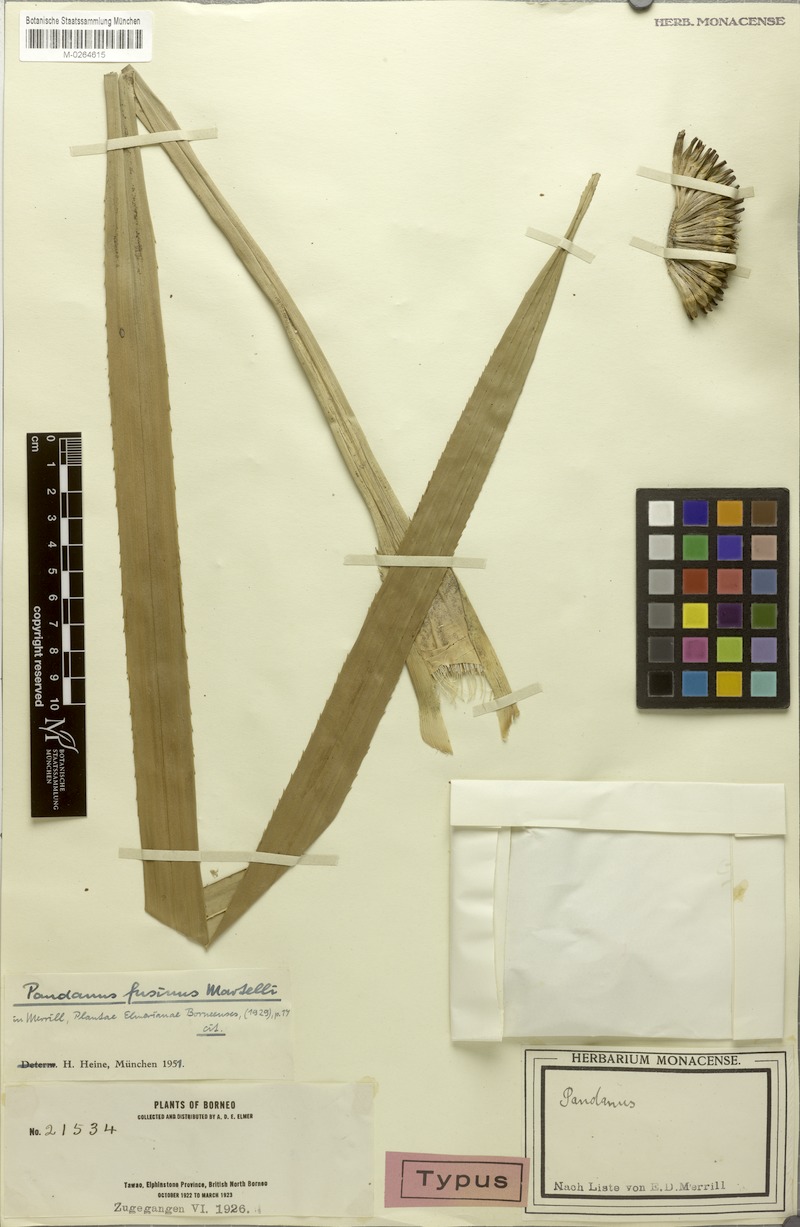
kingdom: Plantae
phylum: Tracheophyta
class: Liliopsida
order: Pandanales
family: Pandanaceae
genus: Pandanus
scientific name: Pandanus fusinus
